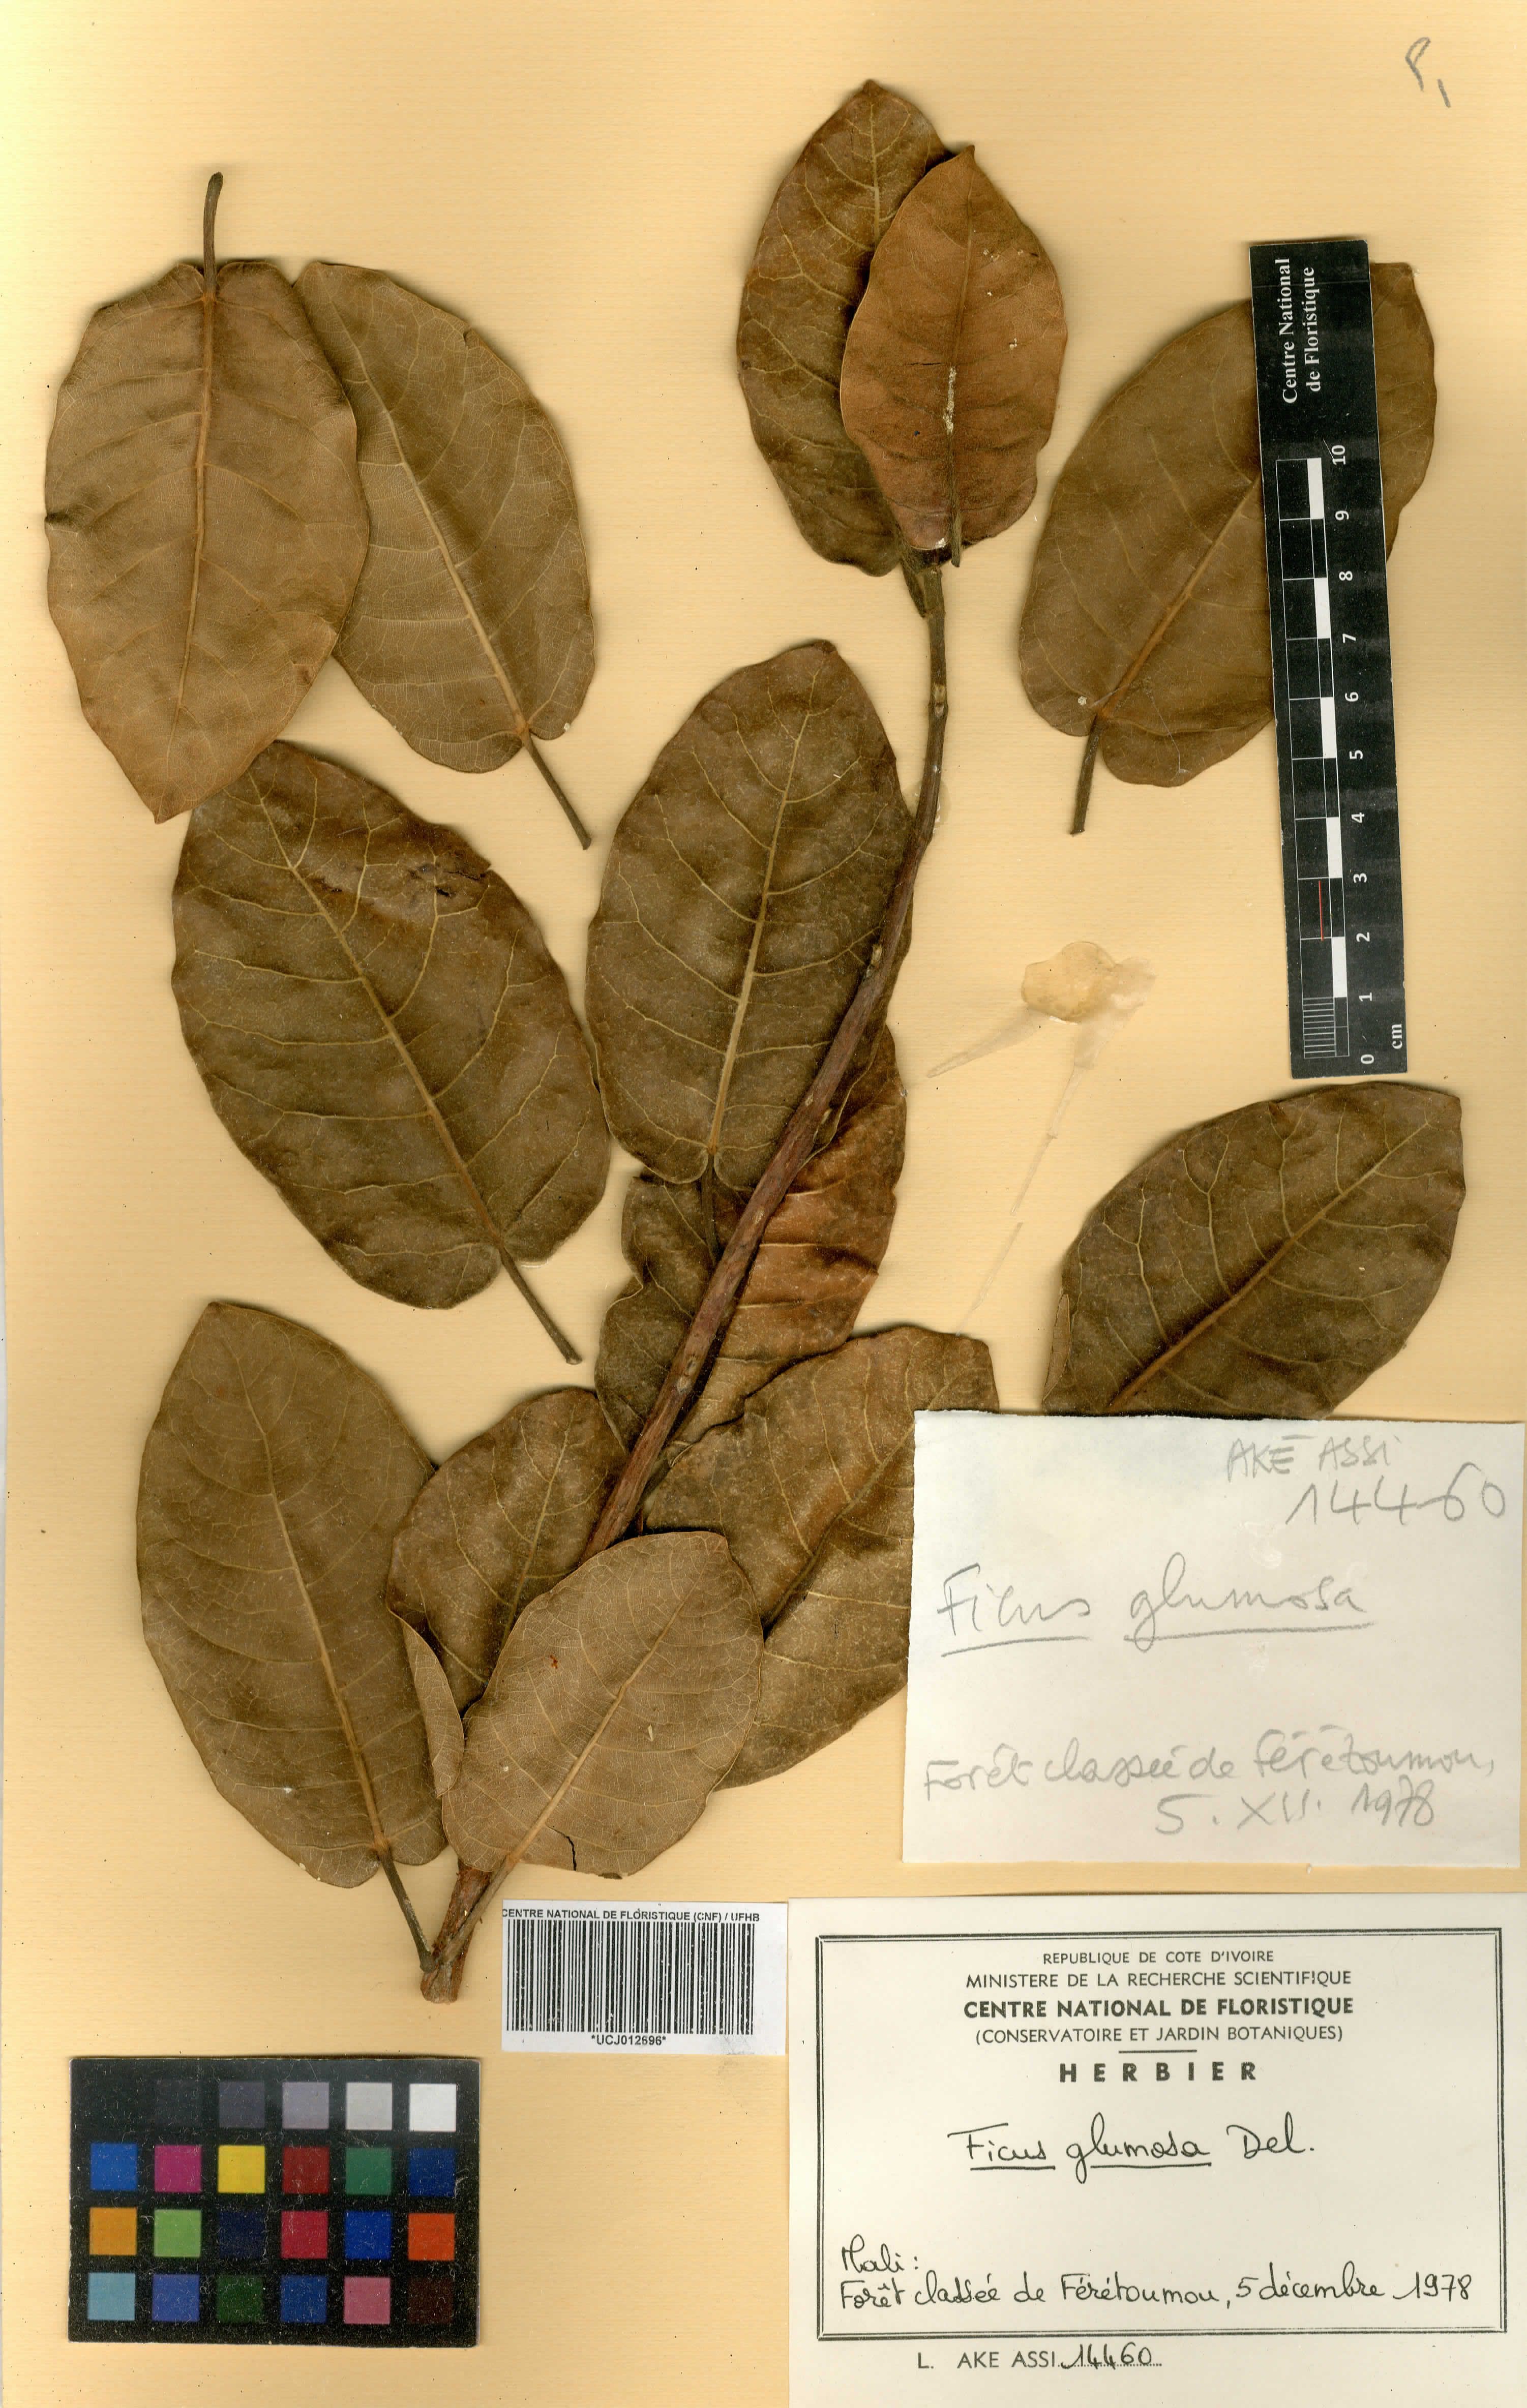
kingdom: Plantae
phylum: Tracheophyta
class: Magnoliopsida
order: Rosales
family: Moraceae
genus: Ficus
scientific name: Ficus glumosa
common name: Hairy rock fig
